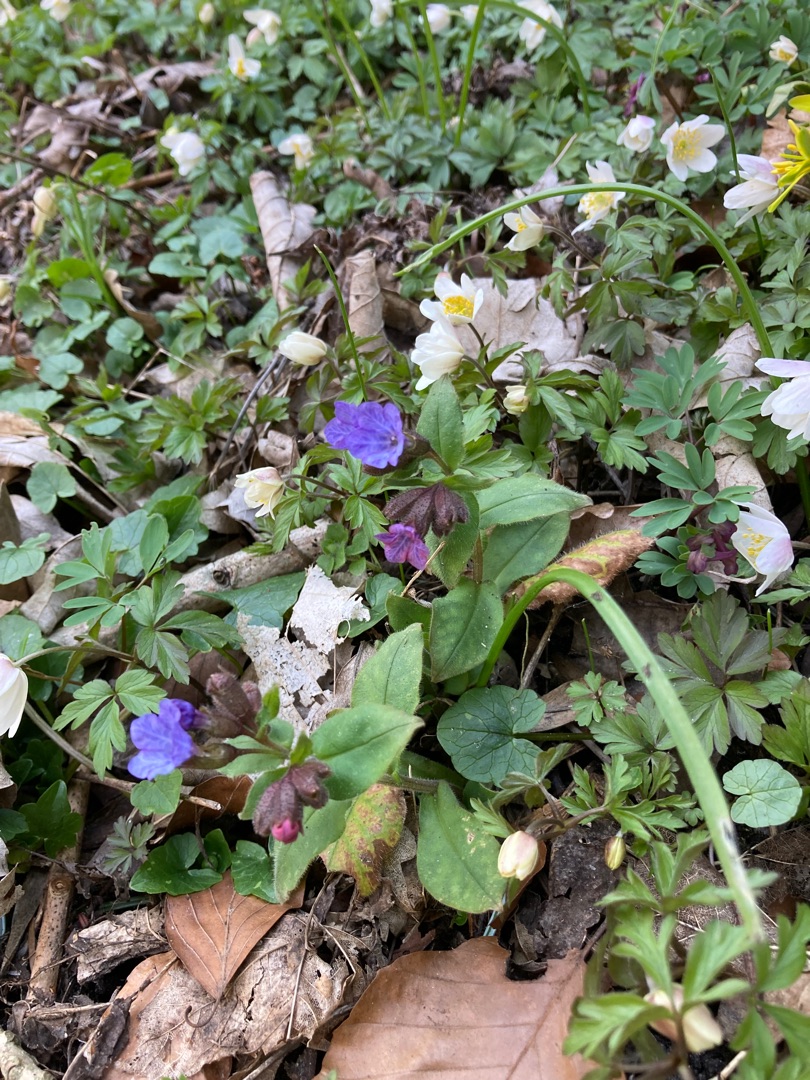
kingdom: Plantae
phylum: Tracheophyta
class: Magnoliopsida
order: Boraginales
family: Boraginaceae
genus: Pulmonaria
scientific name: Pulmonaria obscura
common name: Almindelig lungeurt
